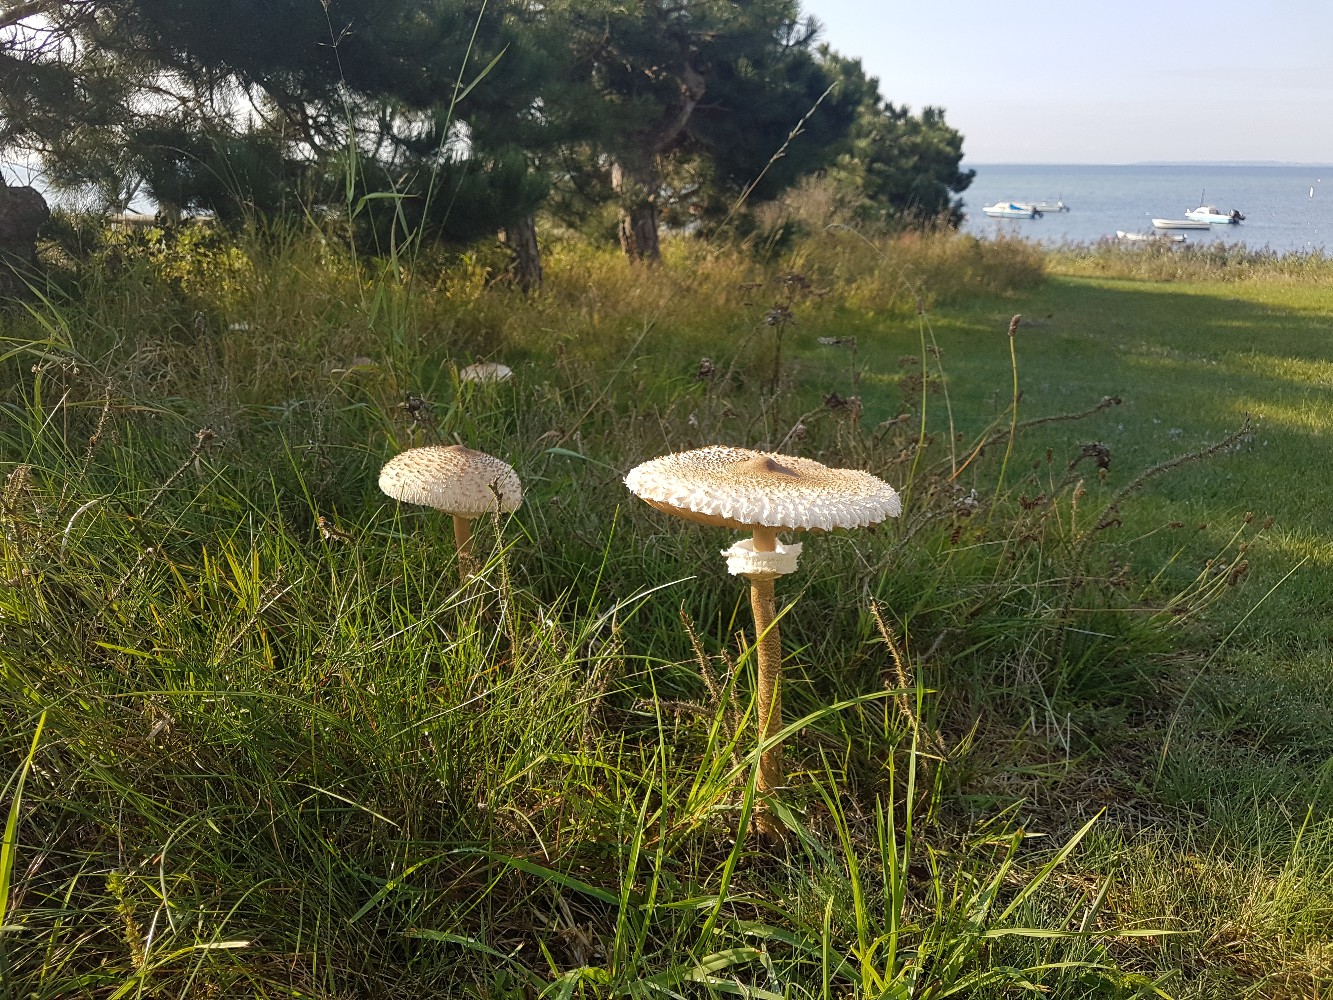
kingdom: Fungi
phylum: Basidiomycota
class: Agaricomycetes
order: Agaricales
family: Agaricaceae
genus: Macrolepiota
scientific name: Macrolepiota procera
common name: stor kæmpeparasolhat
